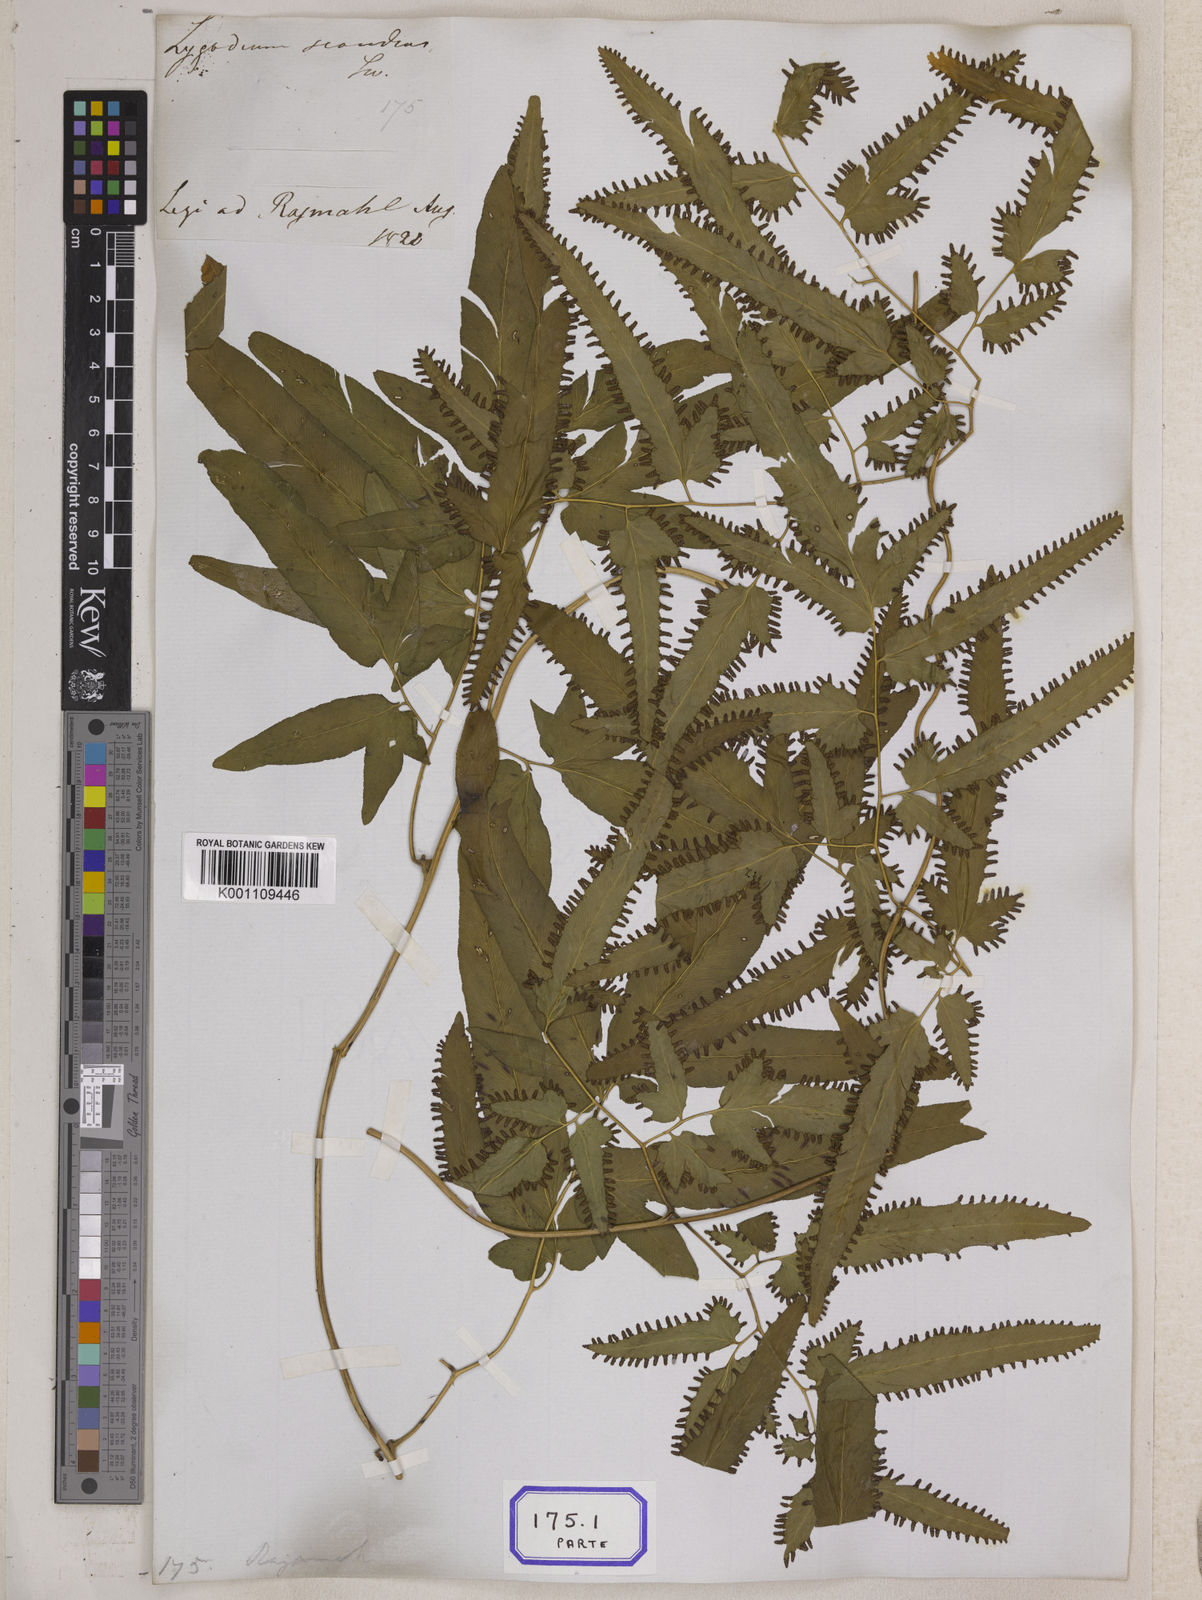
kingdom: Plantae
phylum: Tracheophyta
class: Polypodiopsida
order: Schizaeales
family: Lygodiaceae
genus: Lygodium
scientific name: Lygodium flexuosum
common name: Maidenhair creeper
